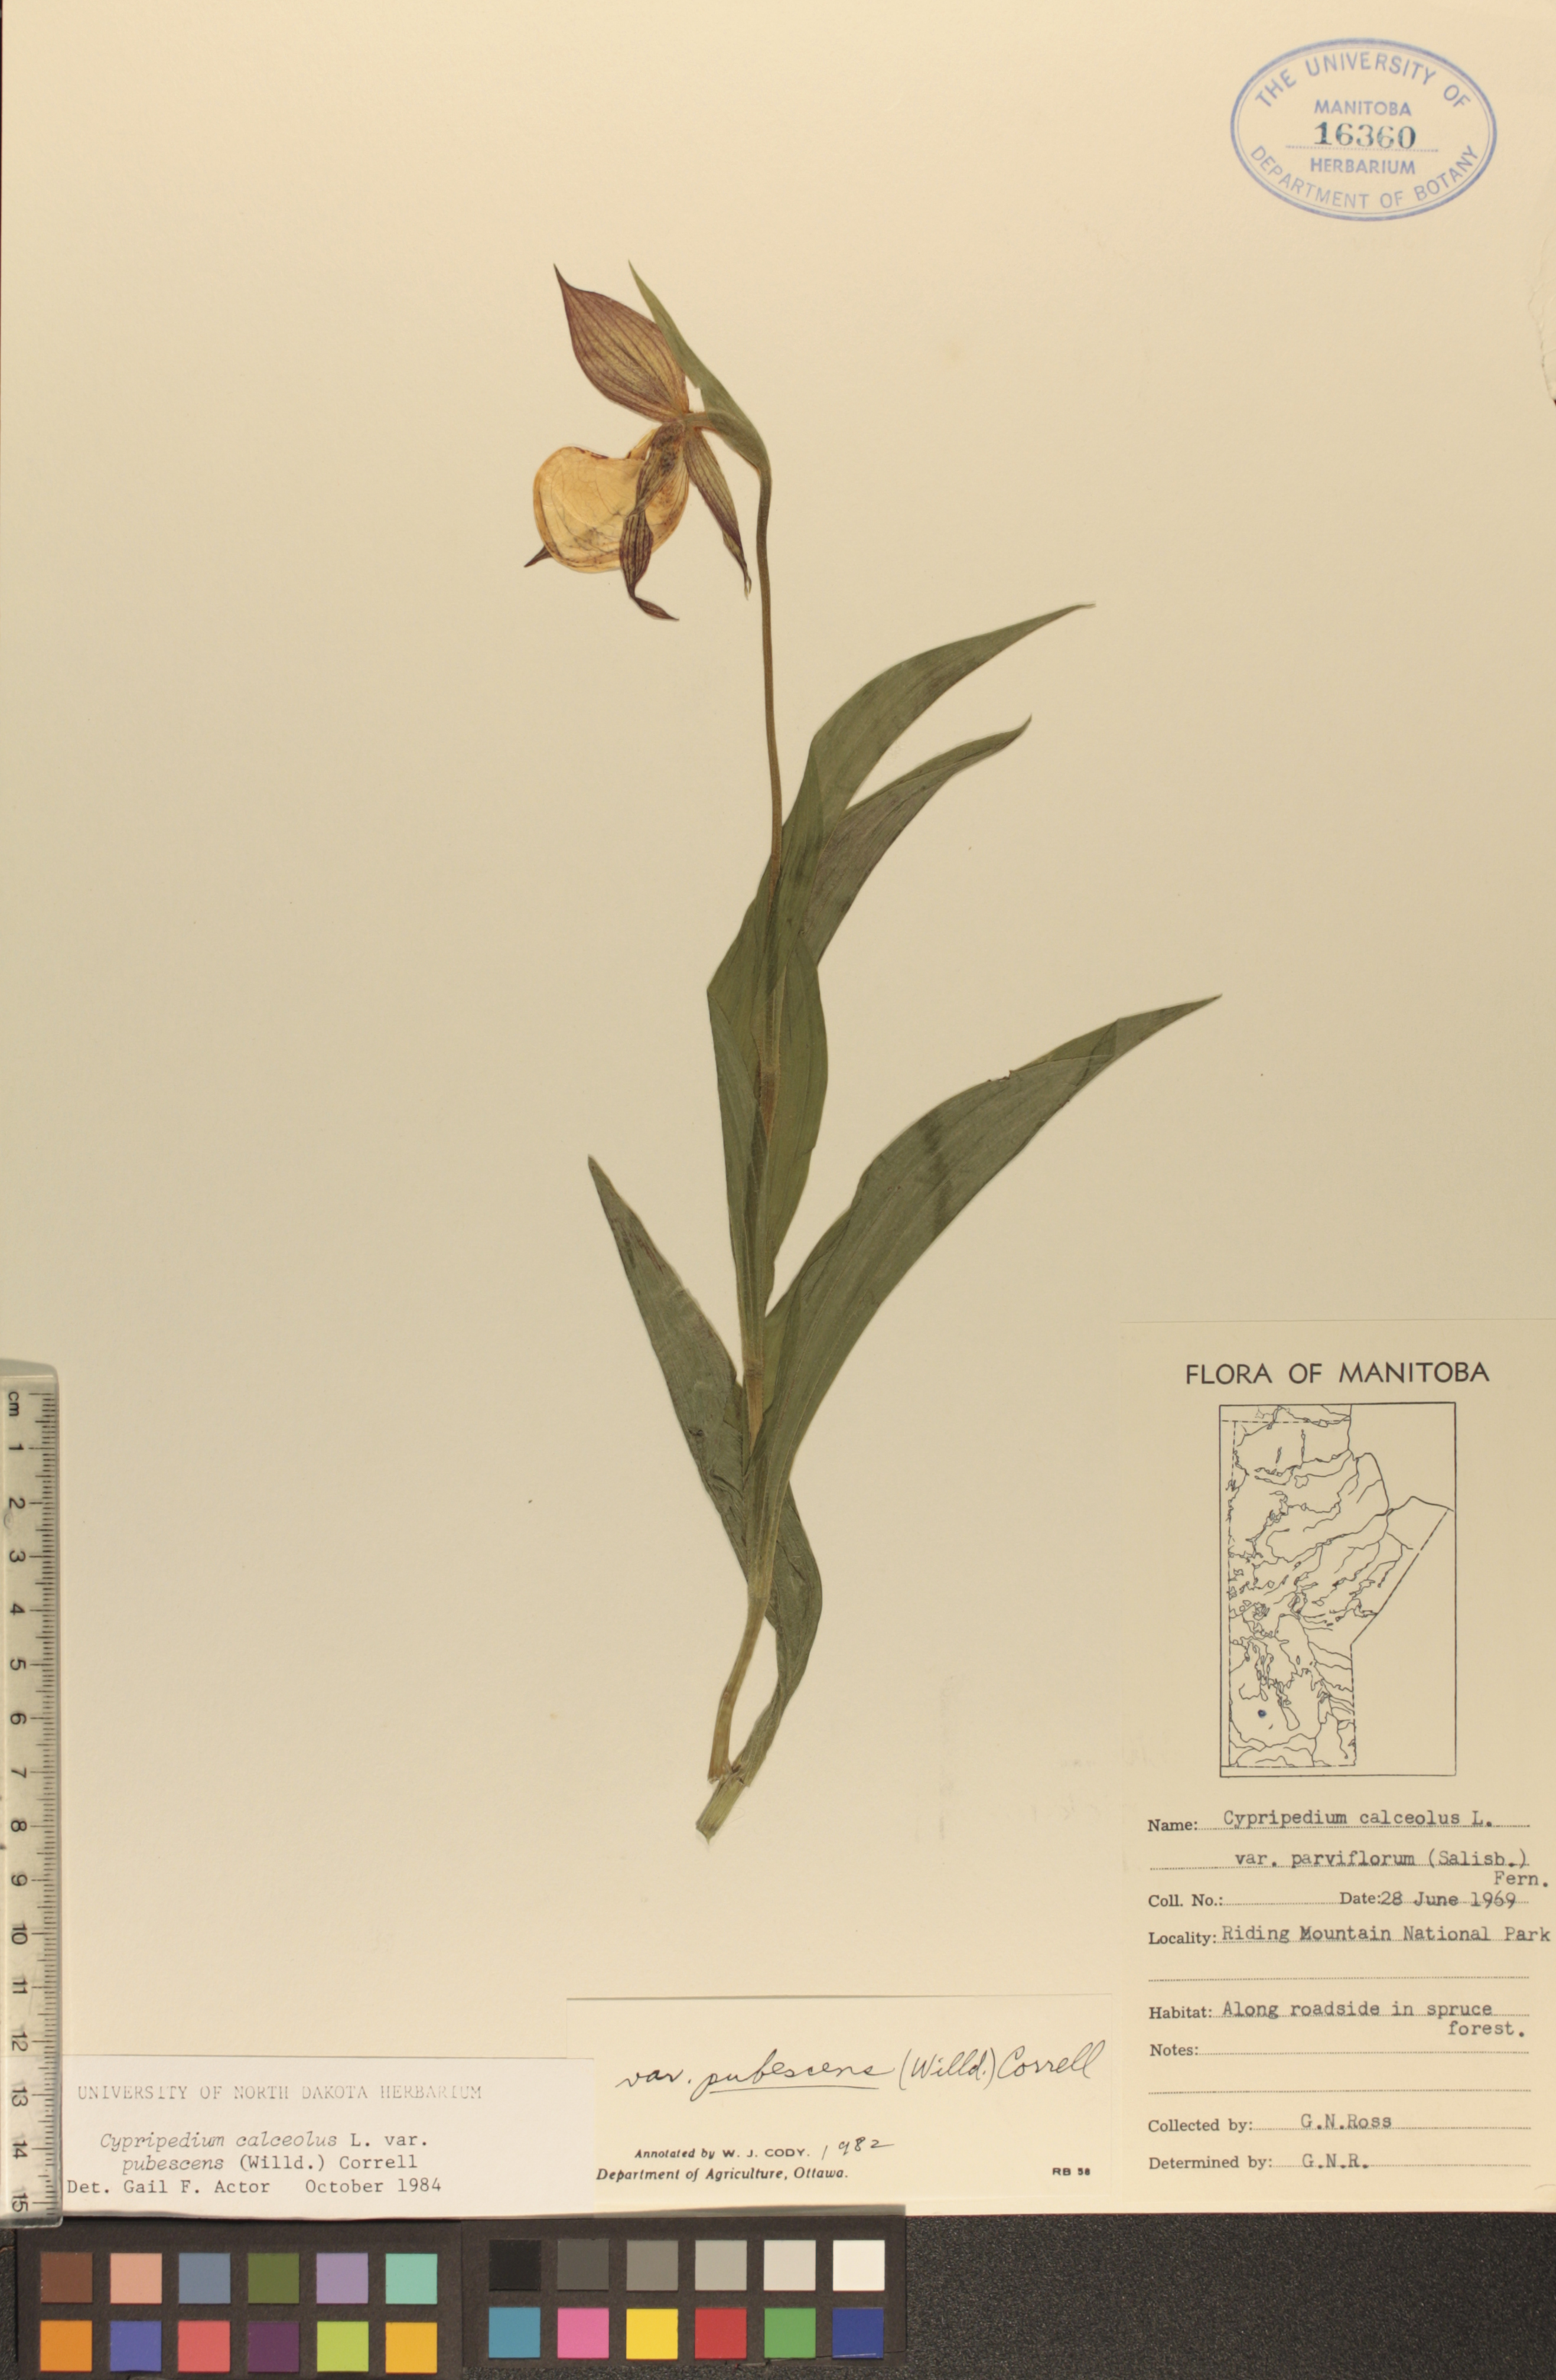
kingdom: Plantae
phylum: Tracheophyta
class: Liliopsida
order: Asparagales
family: Orchidaceae
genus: Cypripedium
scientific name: Cypripedium parviflorum
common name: American yellow lady's-slipper
